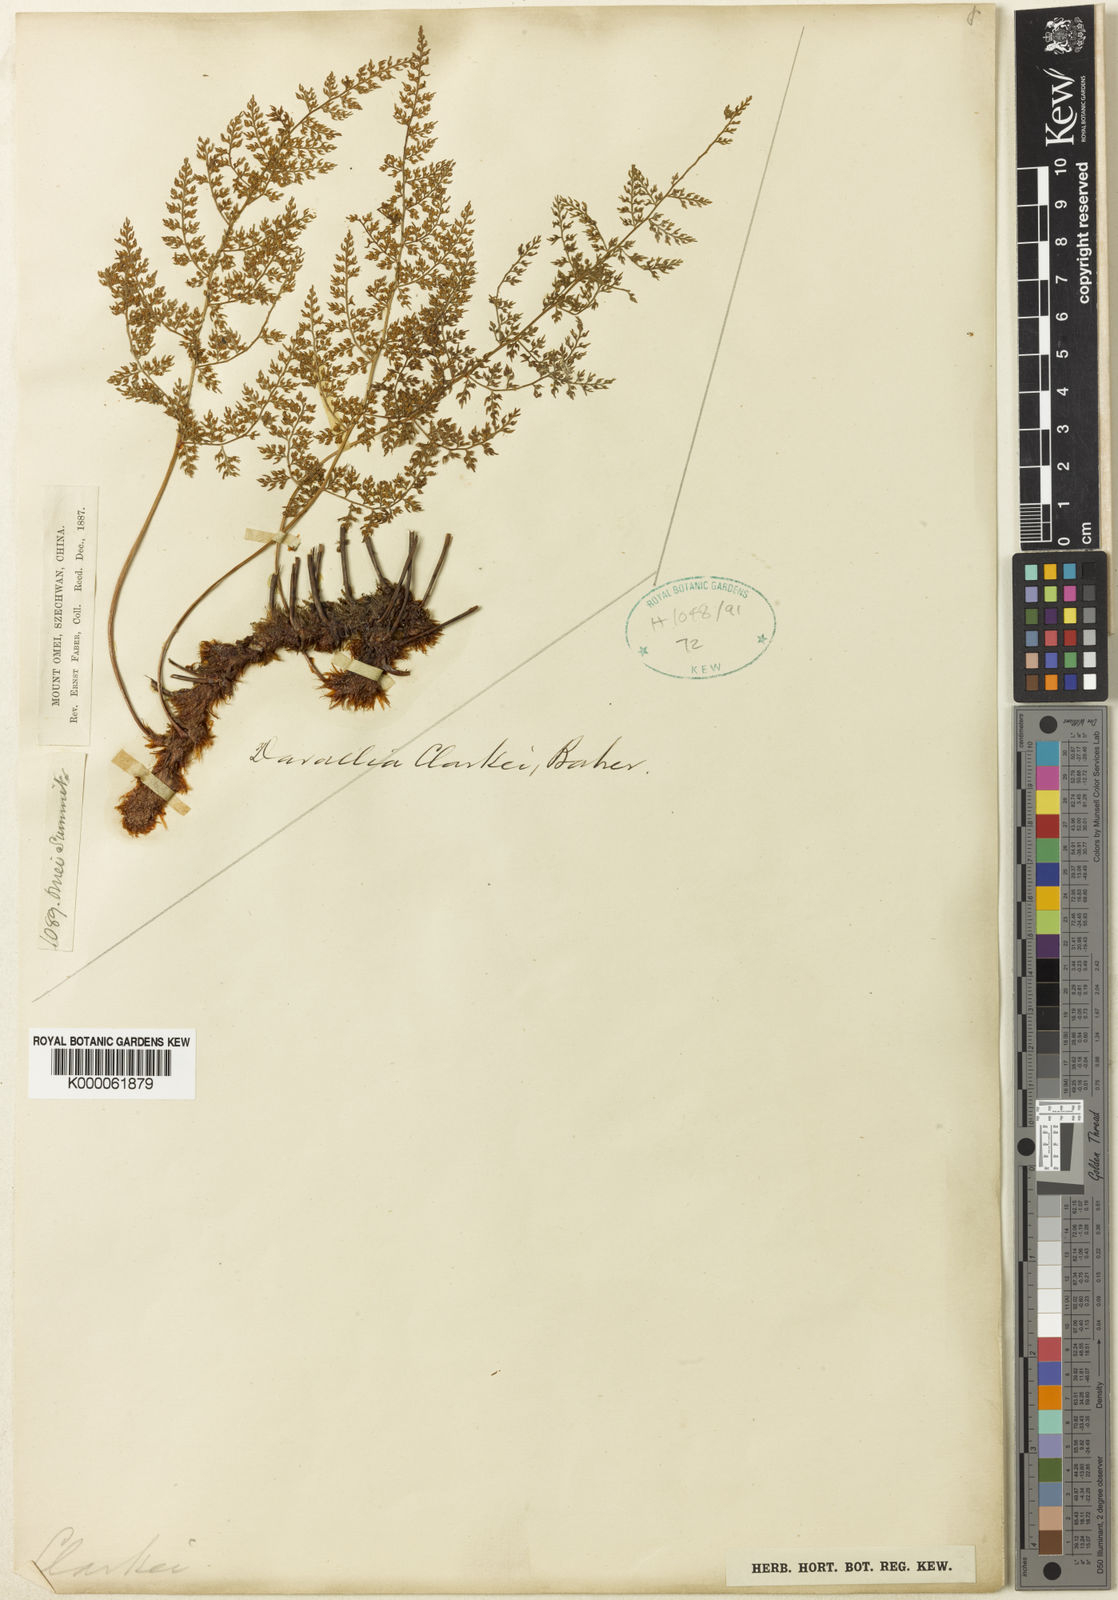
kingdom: Plantae
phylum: Tracheophyta
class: Polypodiopsida
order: Polypodiales
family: Davalliaceae
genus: Davallia
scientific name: Davallia perdurans
